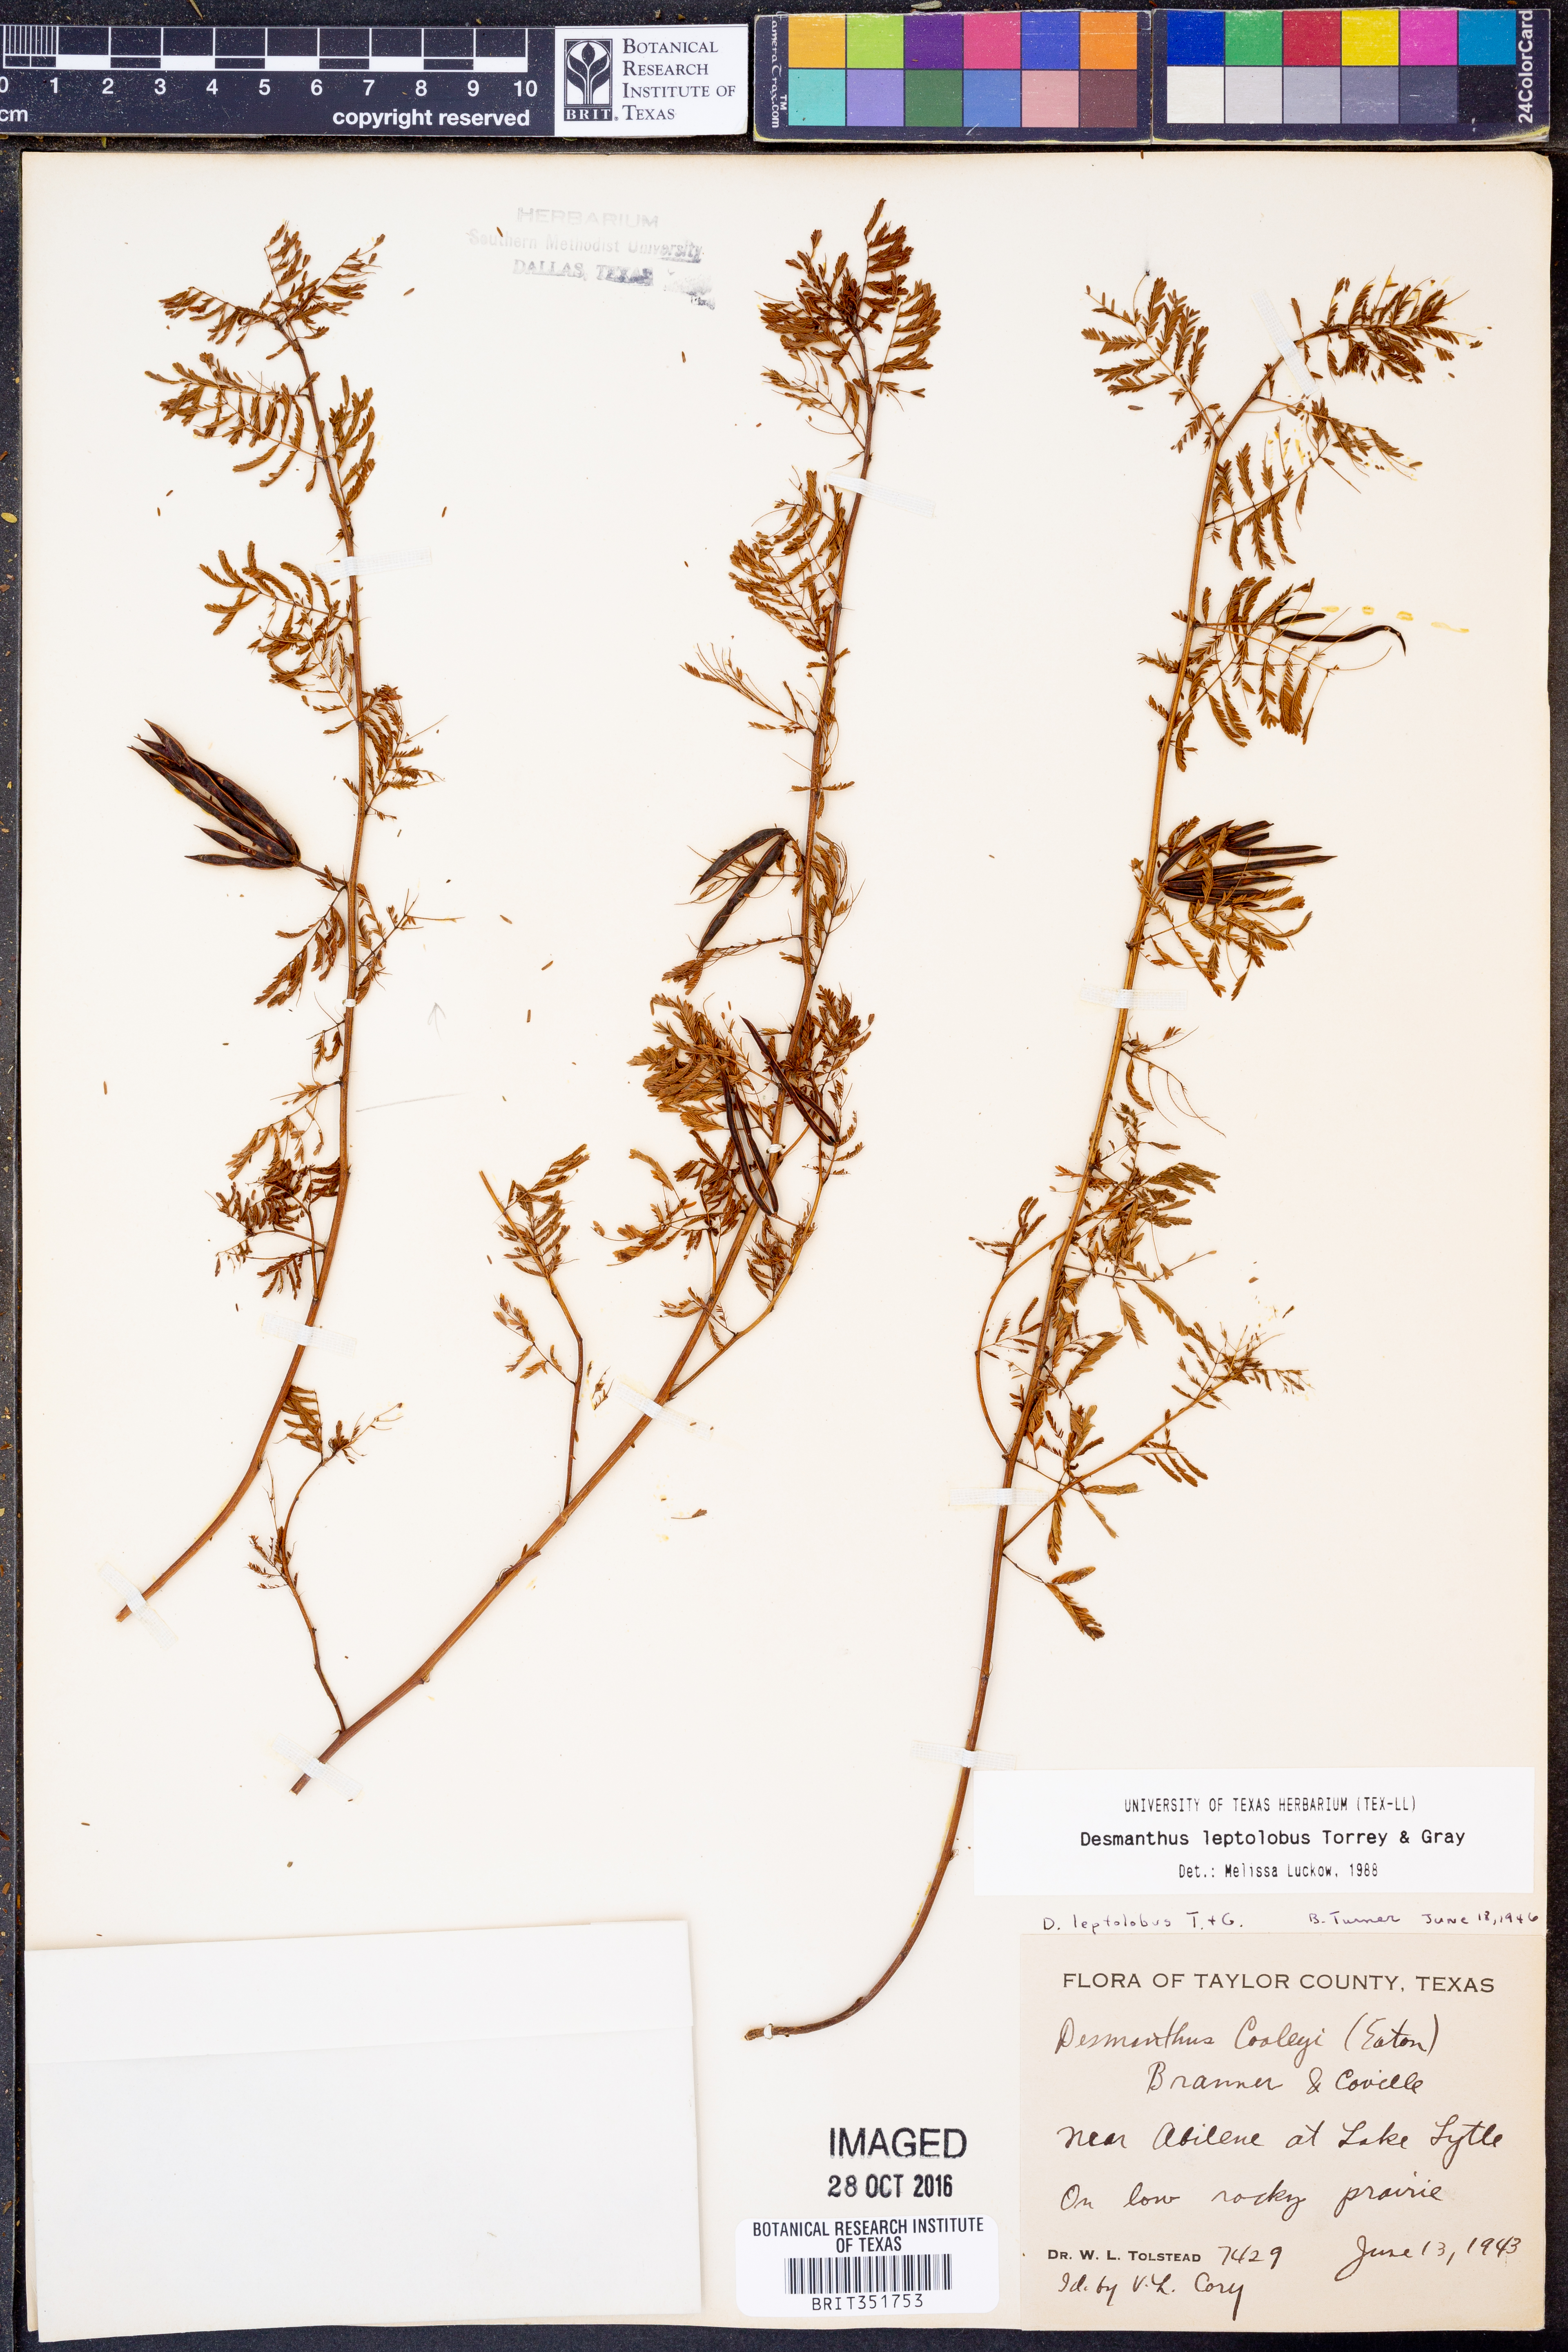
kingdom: Plantae
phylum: Tracheophyta
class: Magnoliopsida
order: Fabales
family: Fabaceae
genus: Desmanthus
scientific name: Desmanthus leptolobus
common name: Prairie-mimosa
